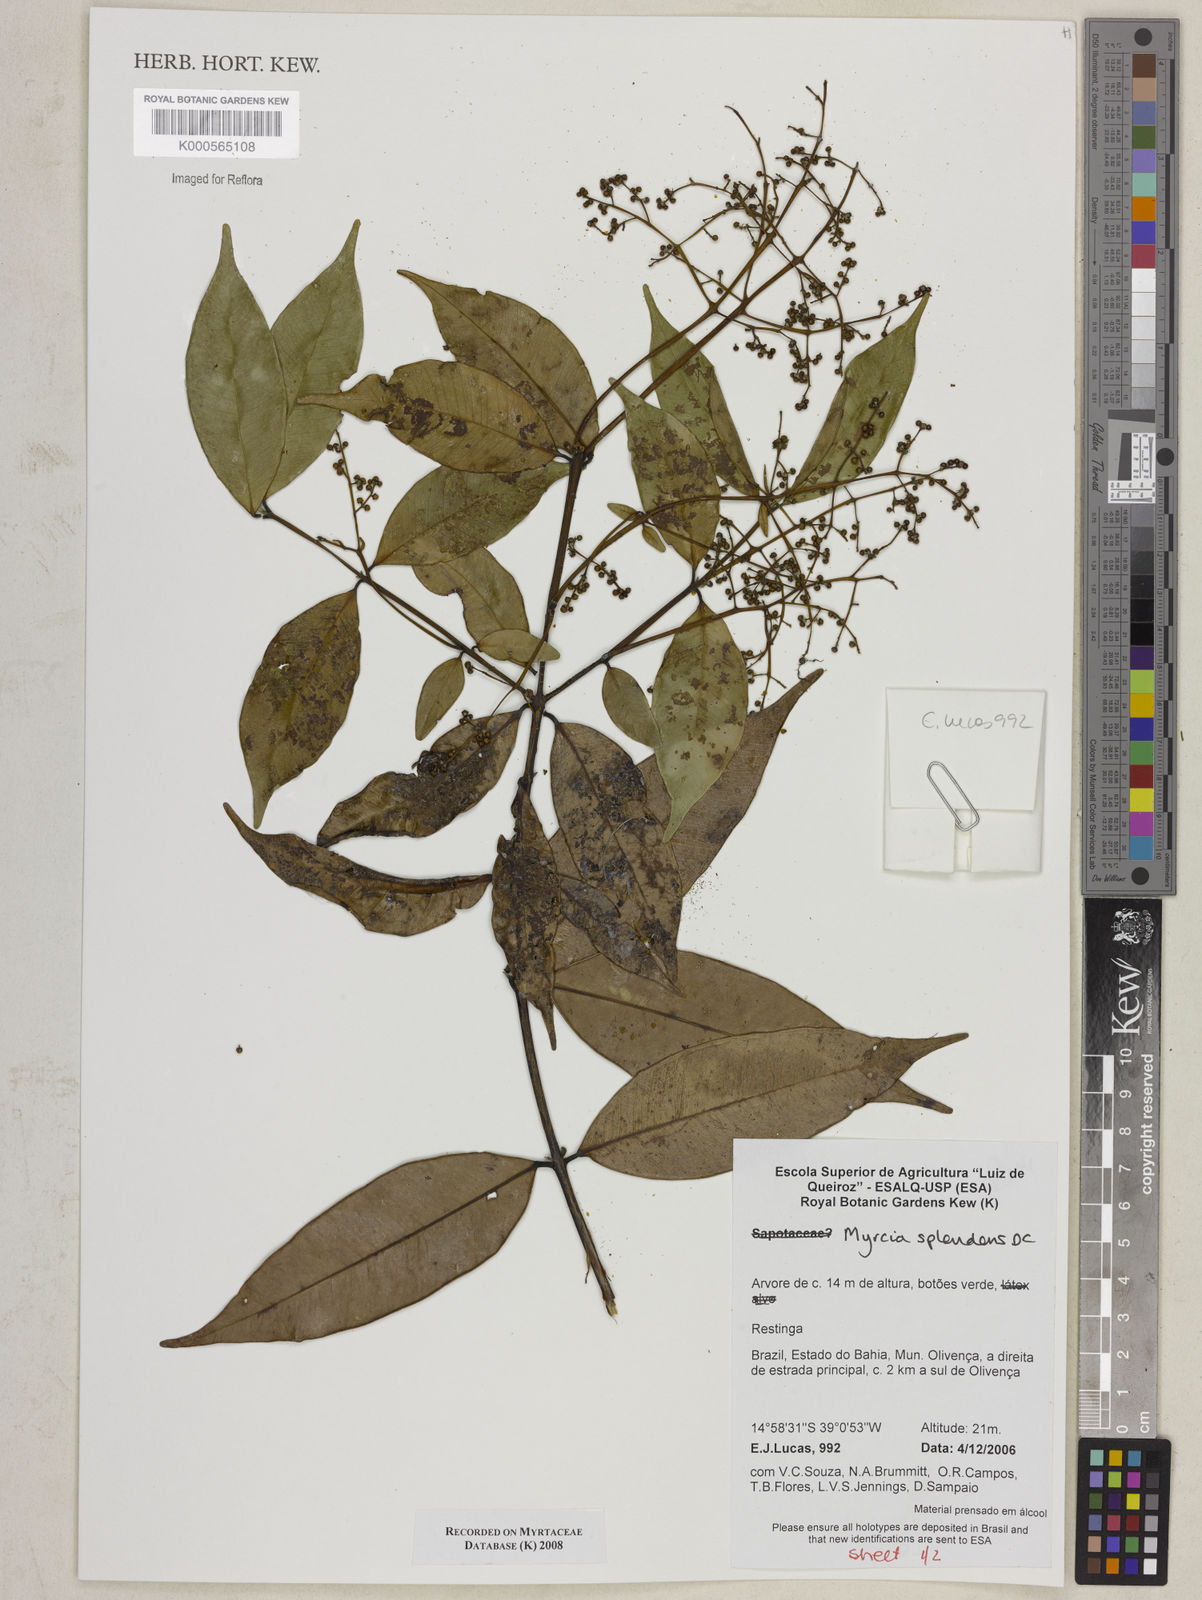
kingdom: Plantae
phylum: Tracheophyta
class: Magnoliopsida
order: Myrtales
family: Myrtaceae
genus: Myrcia
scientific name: Myrcia splendens
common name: Surinam cherry
